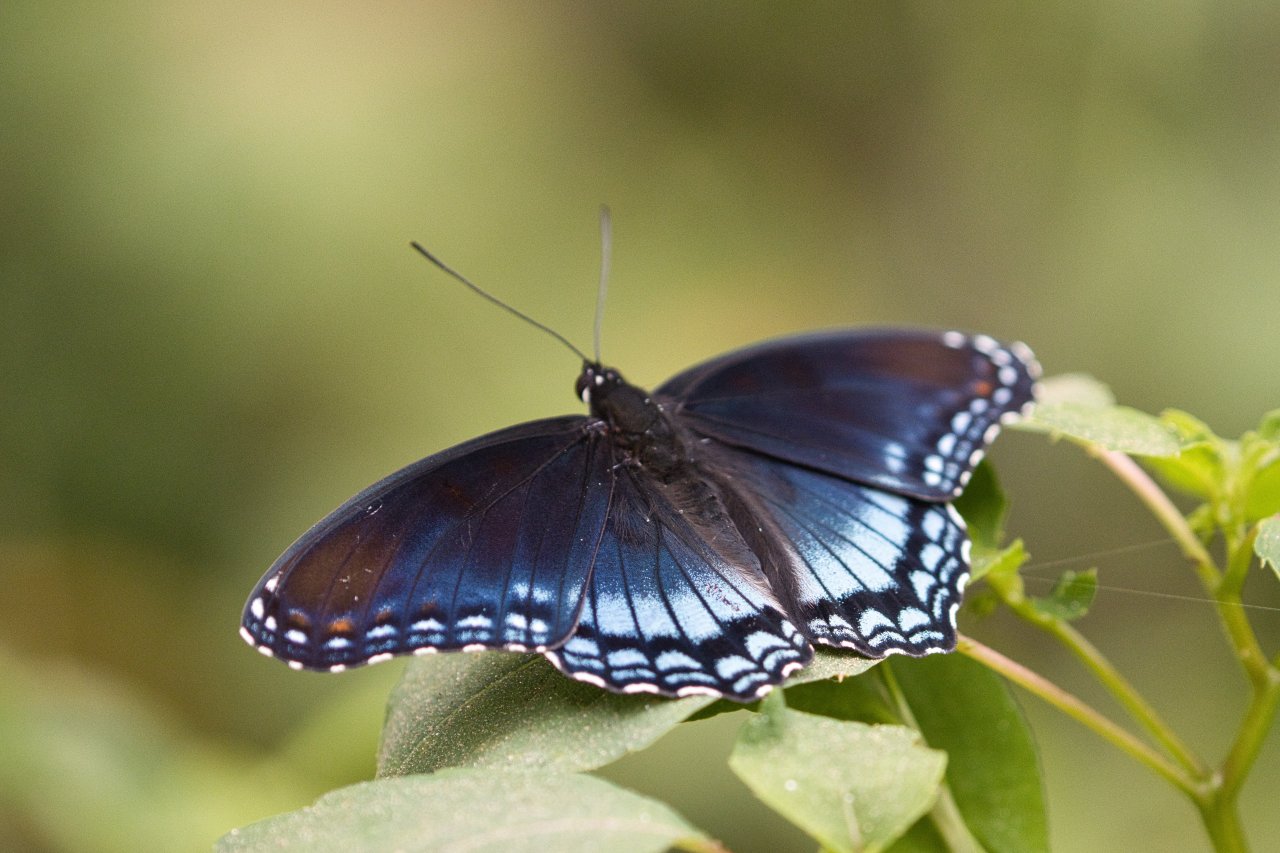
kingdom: Animalia
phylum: Arthropoda
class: Insecta
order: Lepidoptera
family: Nymphalidae
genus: Limenitis
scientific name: Limenitis arthemis
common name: Red-spotted Admiral
